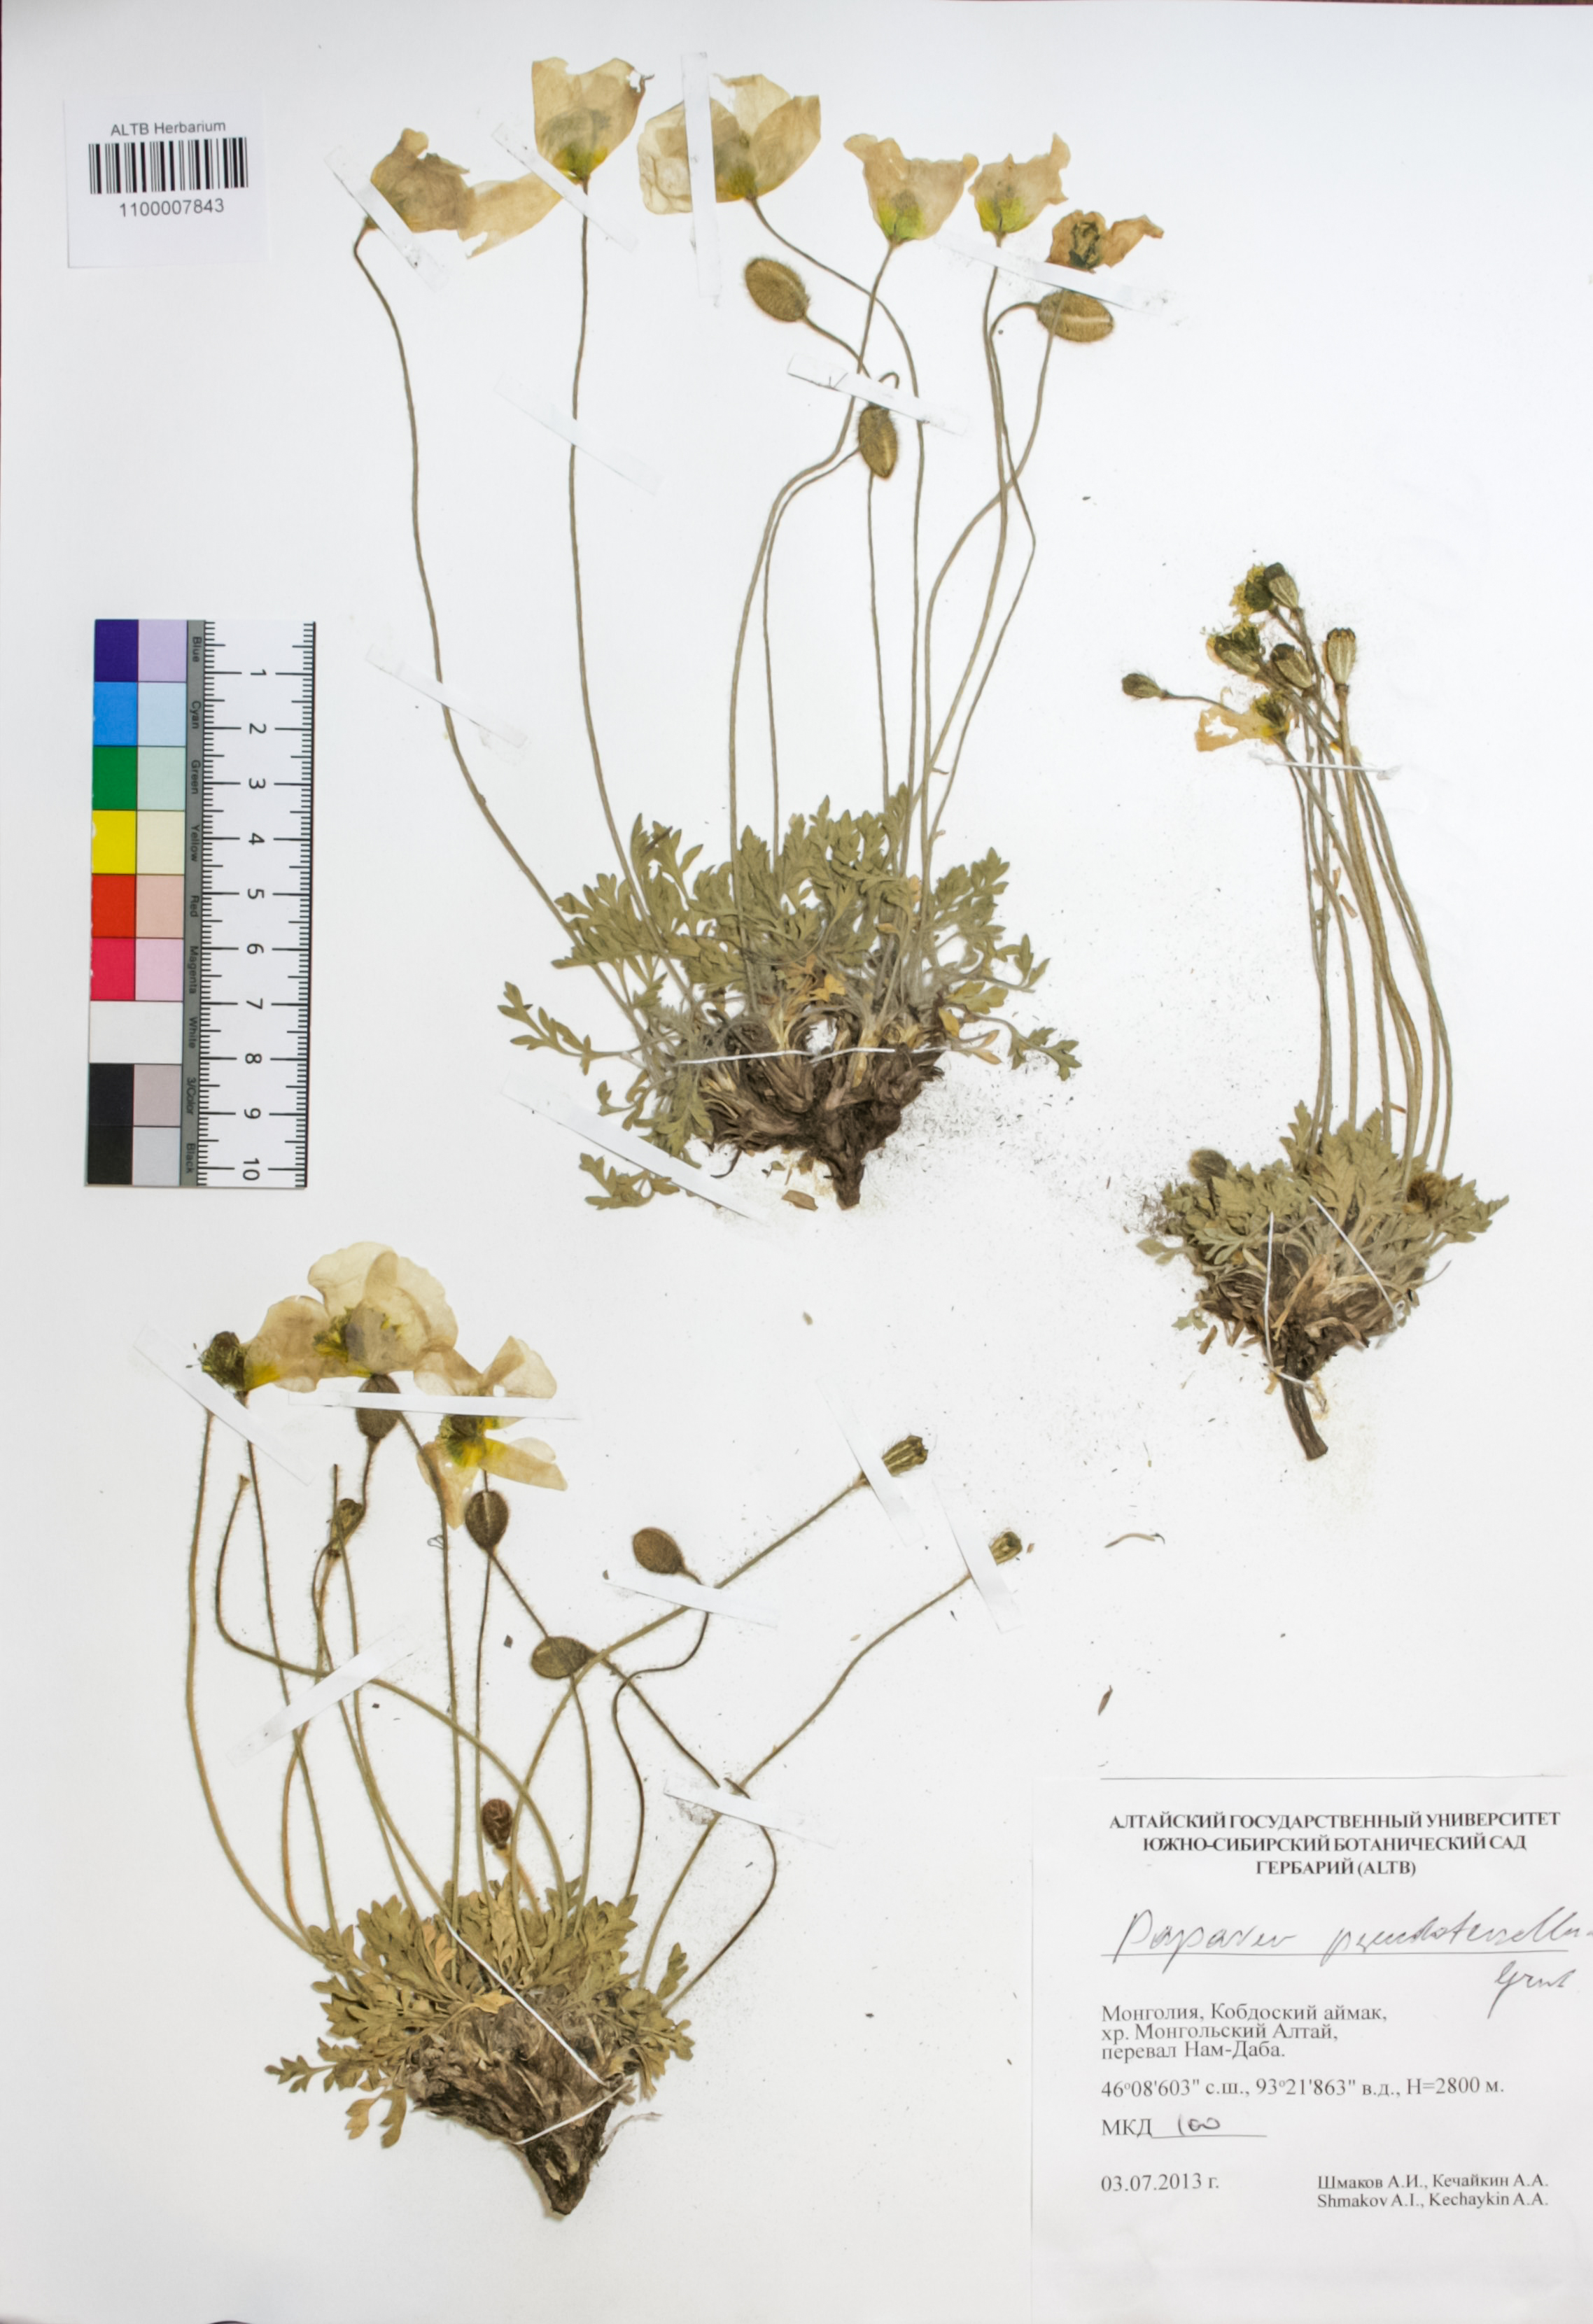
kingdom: Plantae
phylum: Tracheophyta
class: Magnoliopsida
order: Ranunculales
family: Papaveraceae
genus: Papaver
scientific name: Papaver canescens
